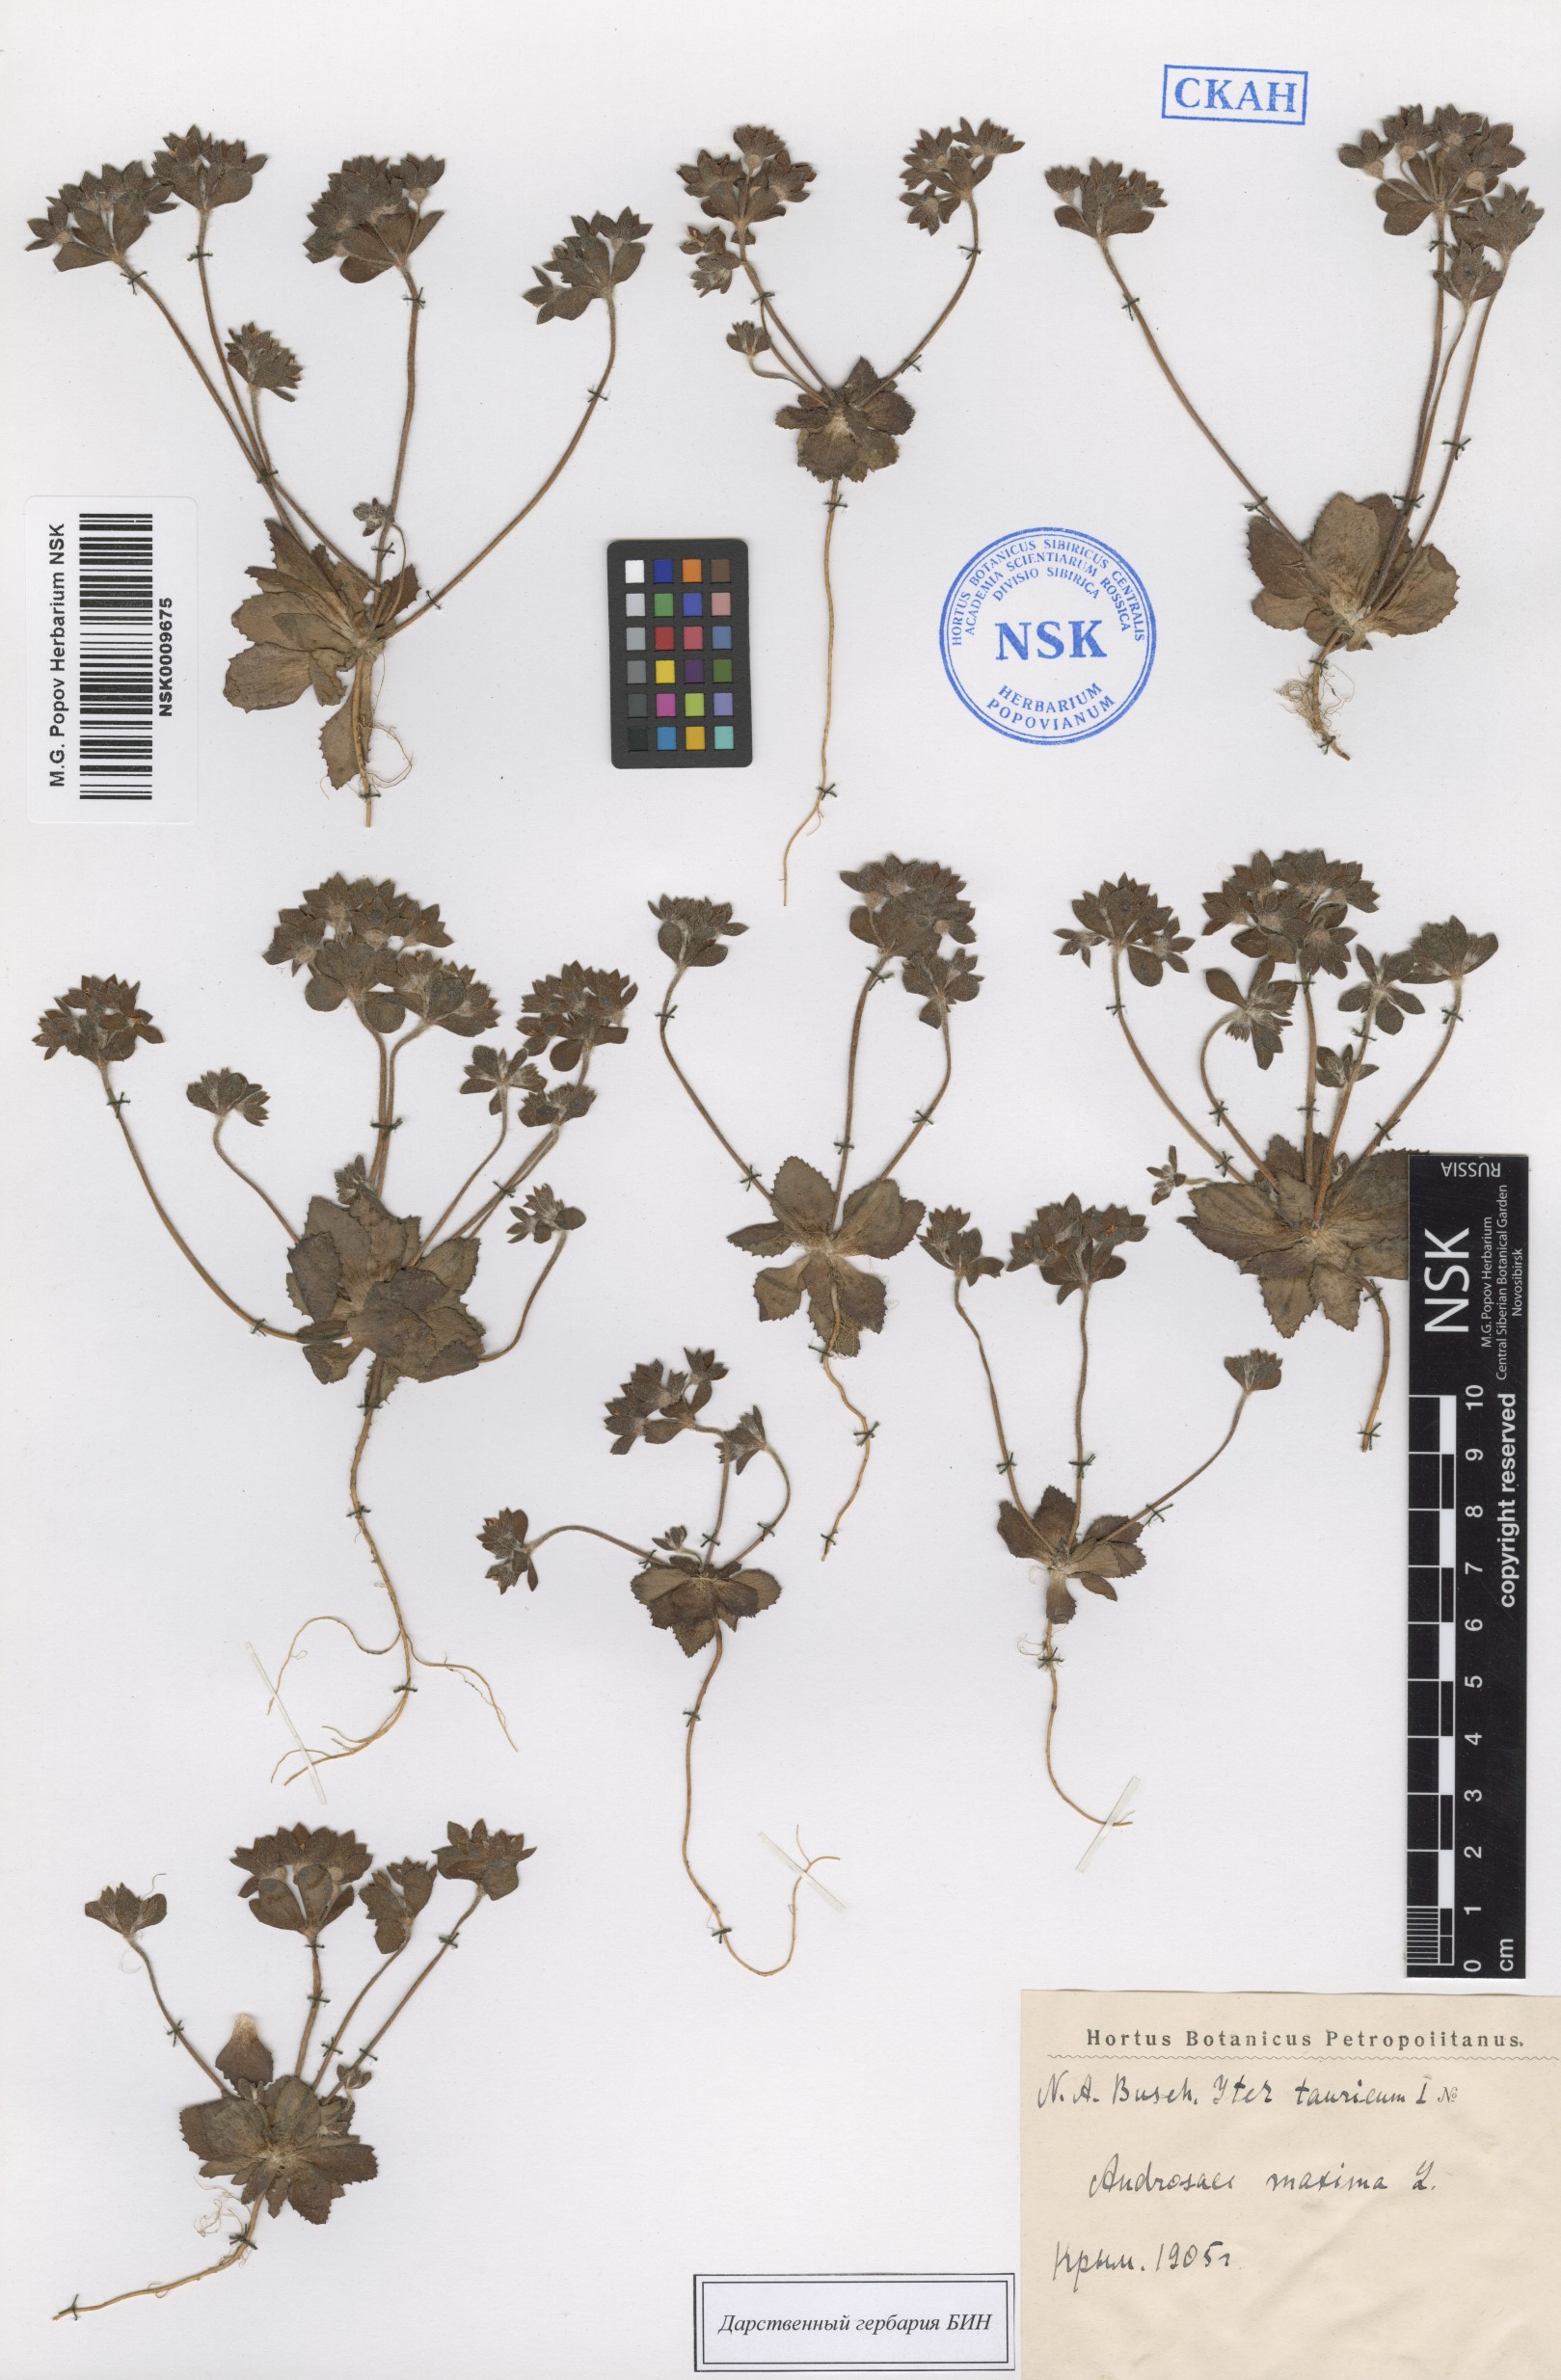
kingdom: Plantae
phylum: Tracheophyta
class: Magnoliopsida
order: Ericales
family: Primulaceae
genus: Androsace
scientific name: Androsace maxima
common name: Annual androsace
